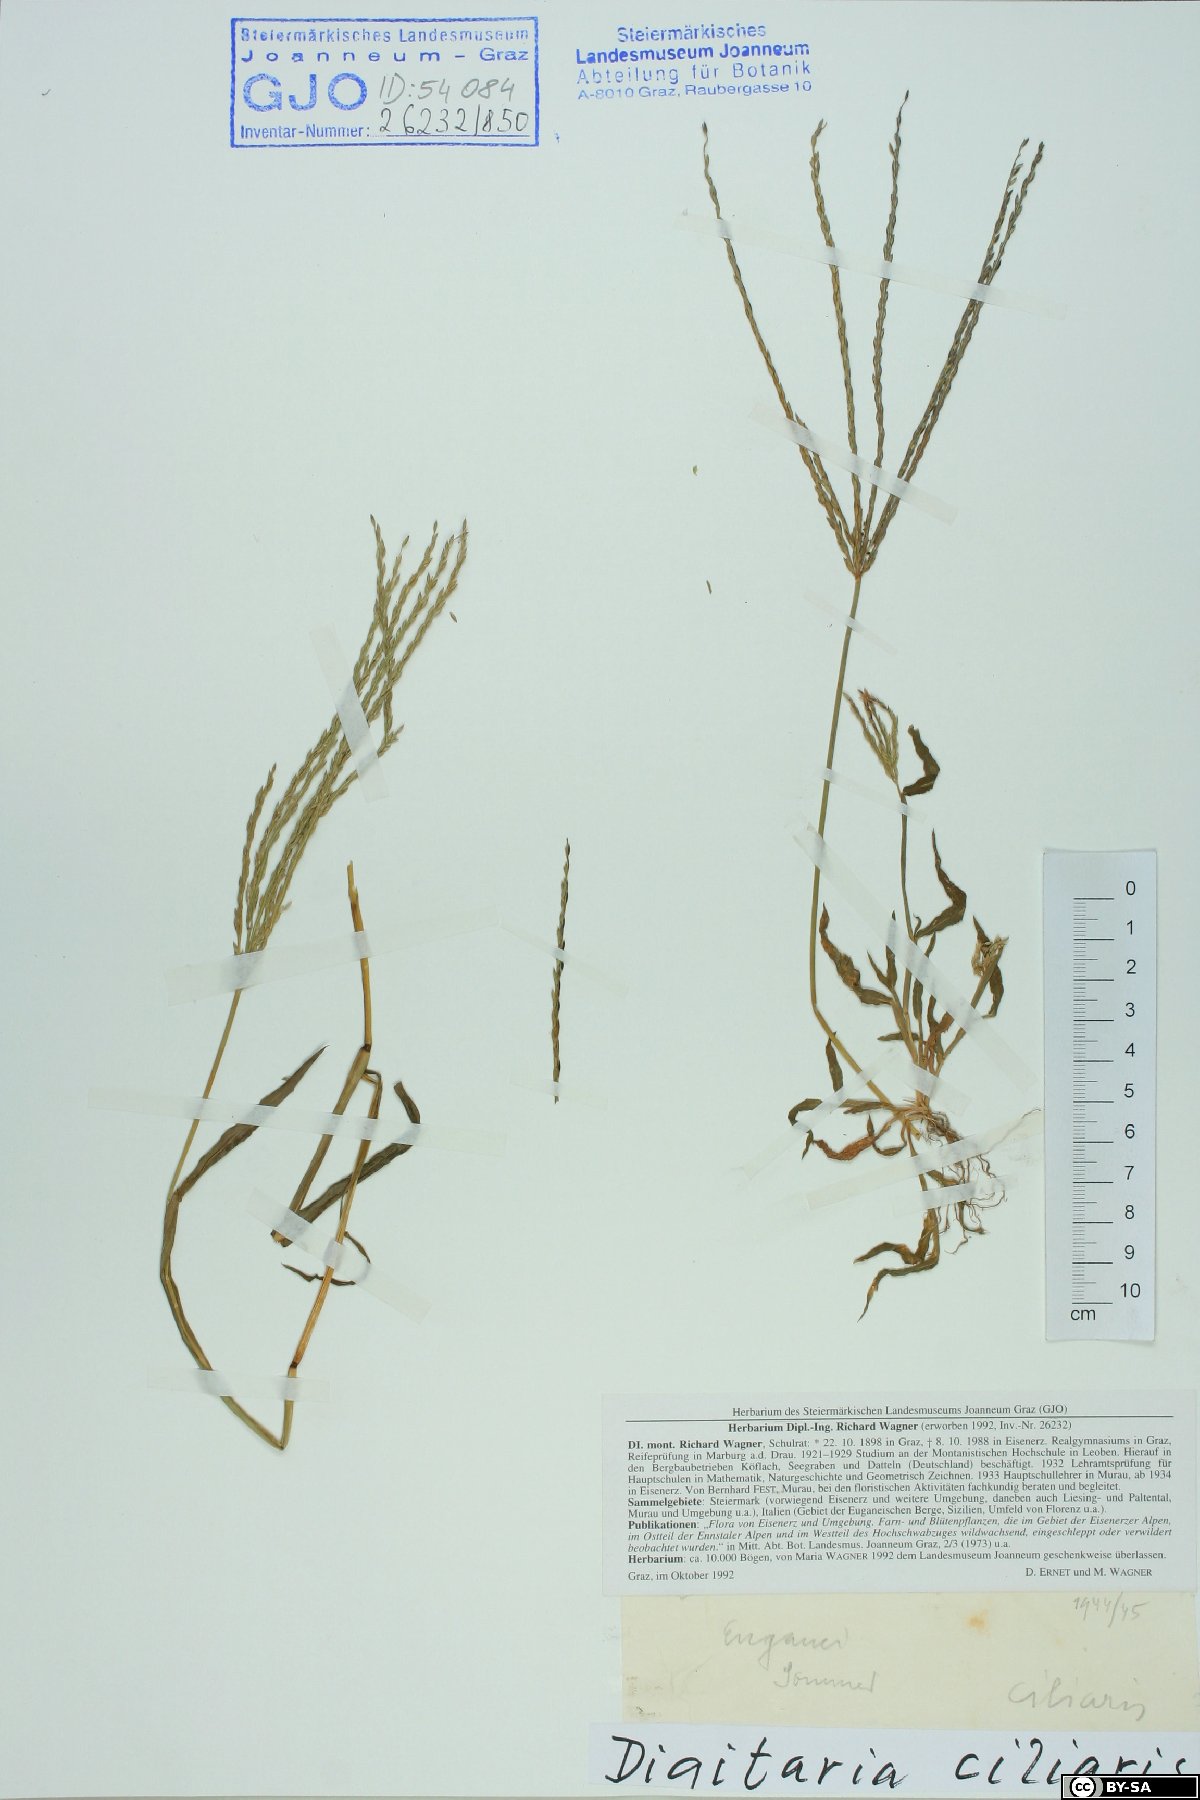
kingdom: Plantae
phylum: Tracheophyta
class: Liliopsida
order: Poales
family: Poaceae
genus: Digitaria
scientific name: Digitaria ciliaris
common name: Tropical finger-grass
